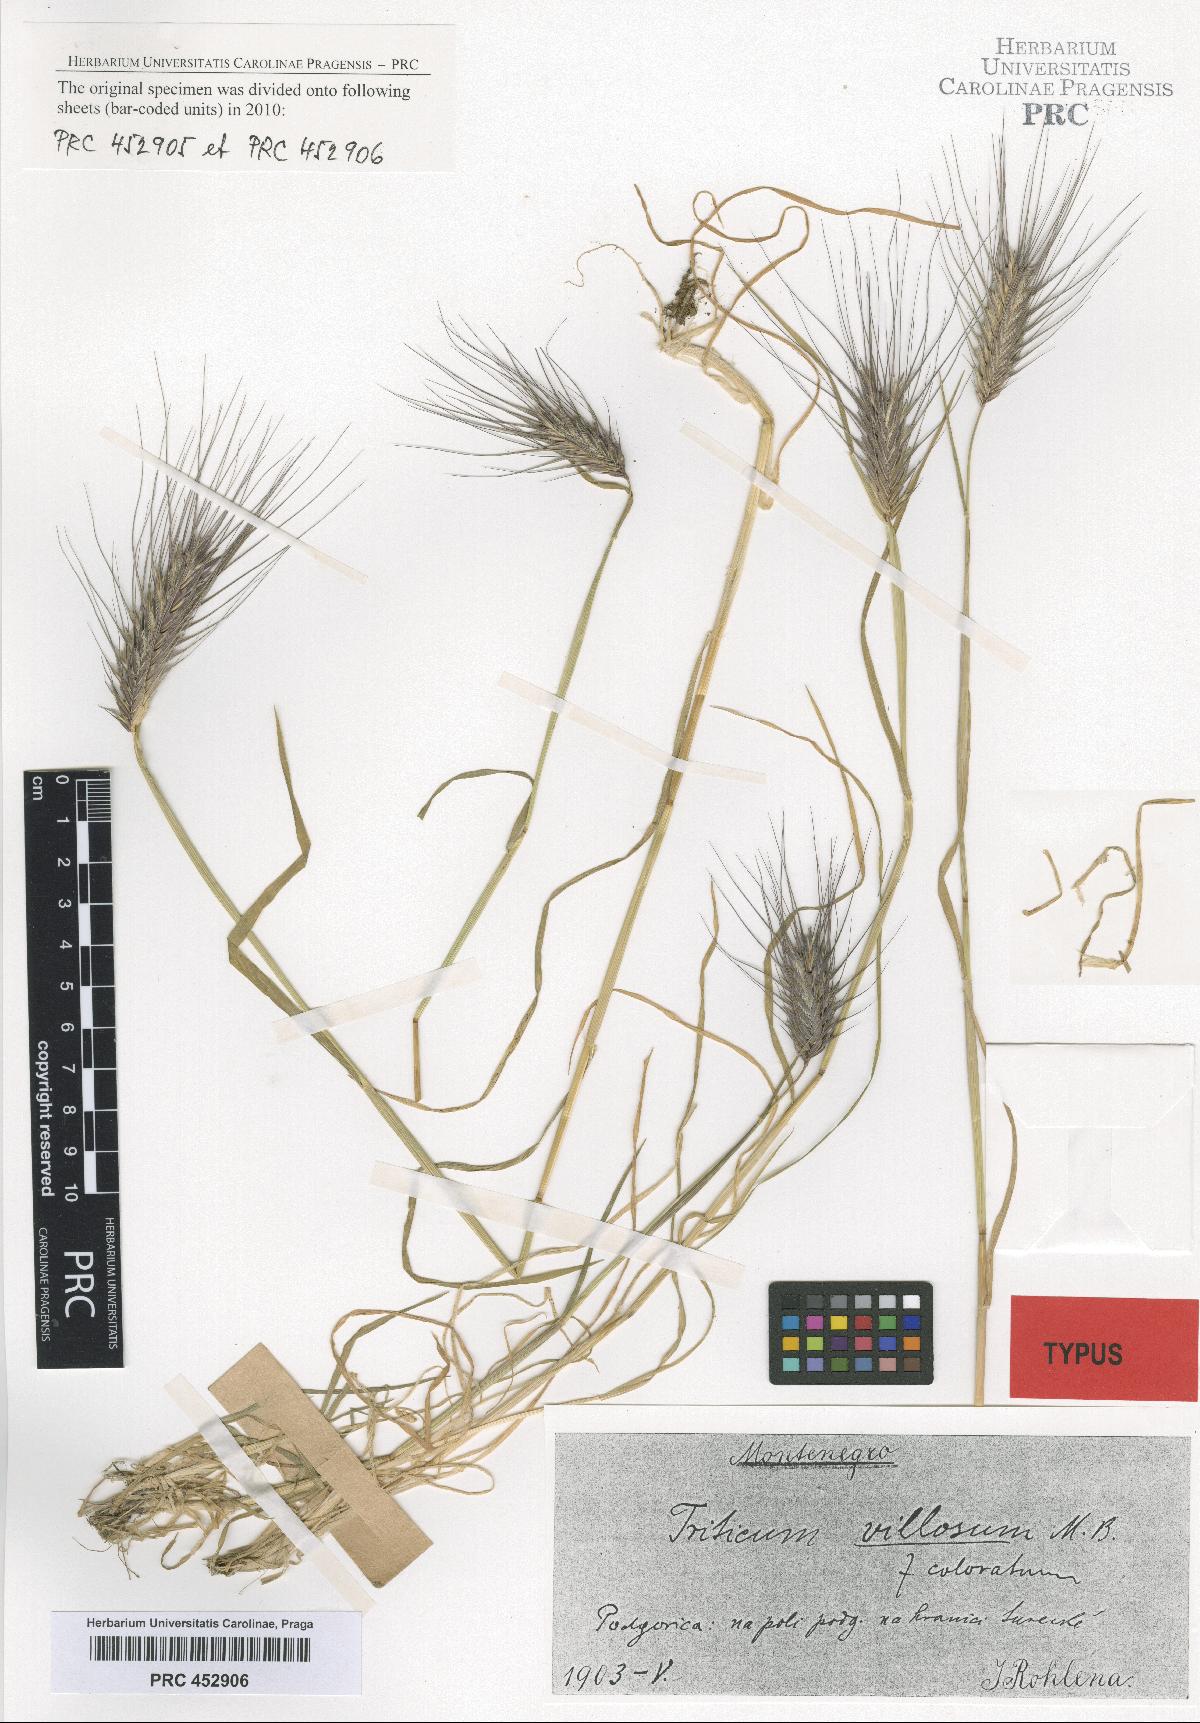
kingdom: Plantae
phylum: Tracheophyta
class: Liliopsida
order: Poales
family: Poaceae
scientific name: Poaceae
